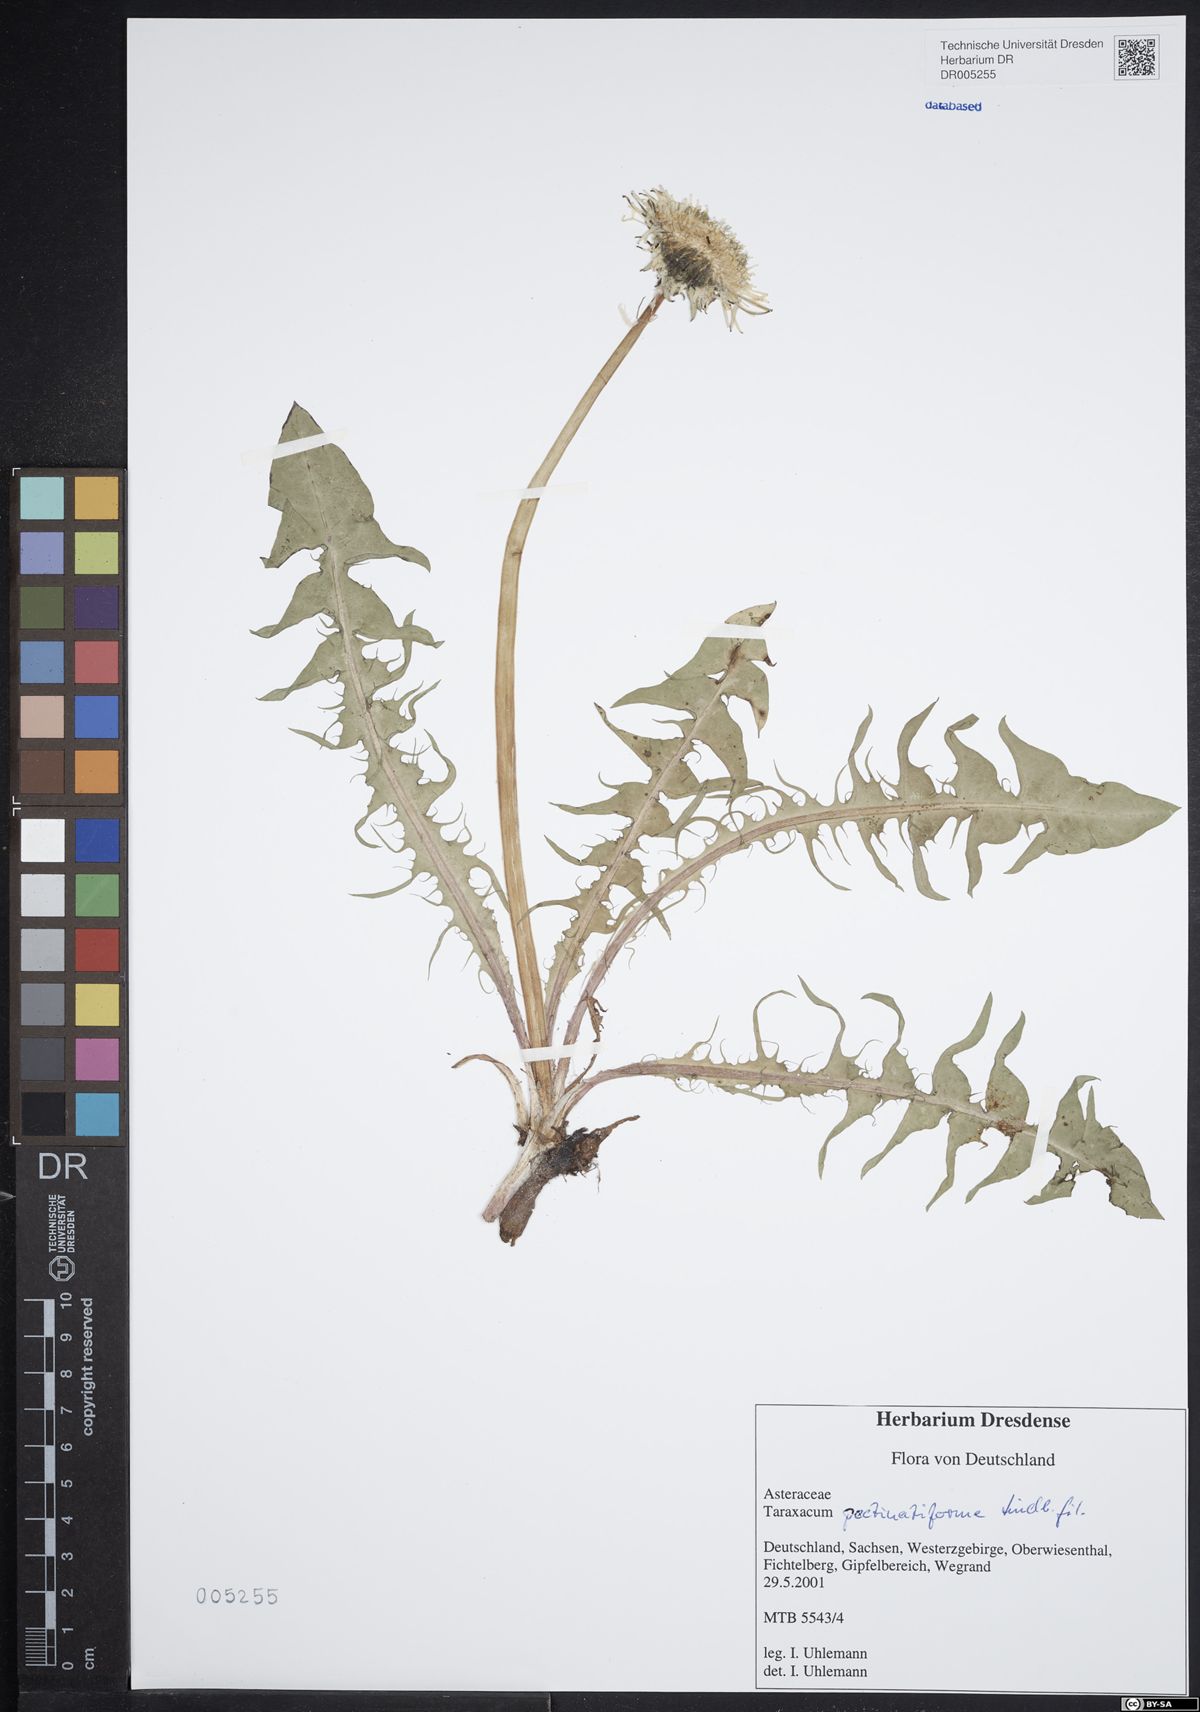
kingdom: Plantae
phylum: Tracheophyta
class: Magnoliopsida
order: Asterales
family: Asteraceae
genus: Taraxacum
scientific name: Taraxacum pectinatiforme
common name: Pectinate-leaved dandelion
